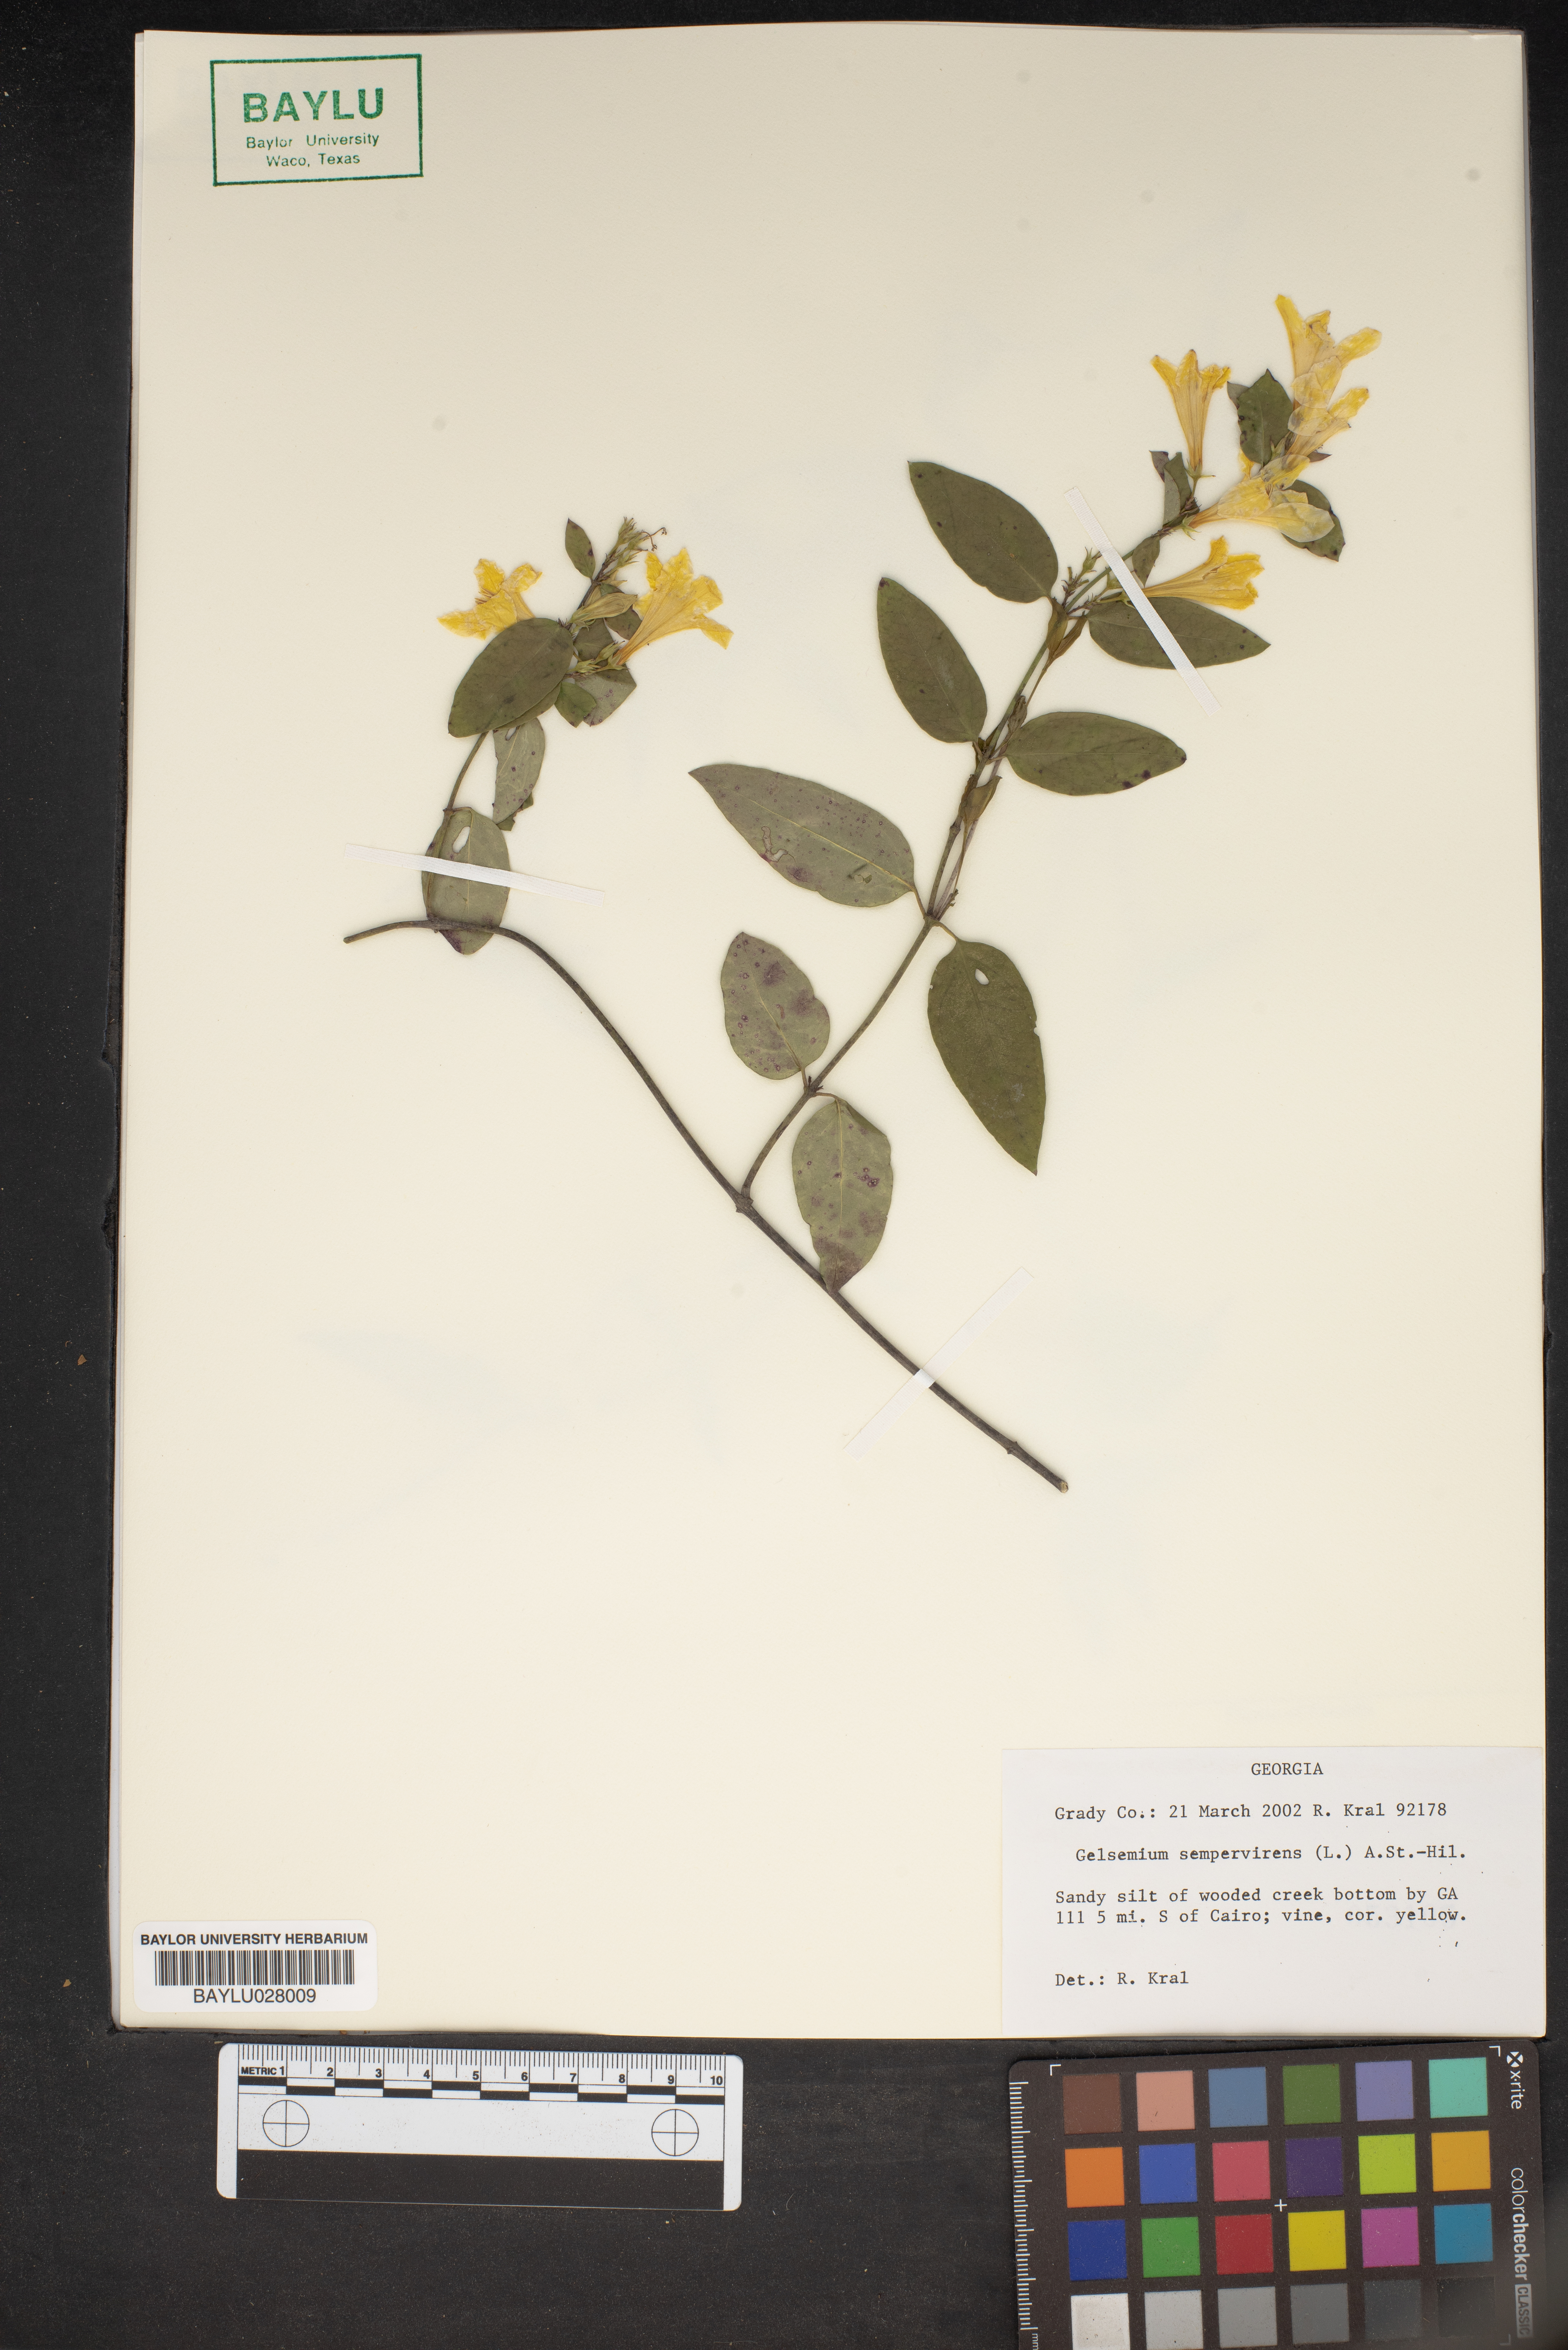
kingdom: Plantae
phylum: Tracheophyta
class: Magnoliopsida
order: Gentianales
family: Gelsemiaceae
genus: Gelsemium
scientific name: Gelsemium sempervirens
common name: Carolina-jasmine
